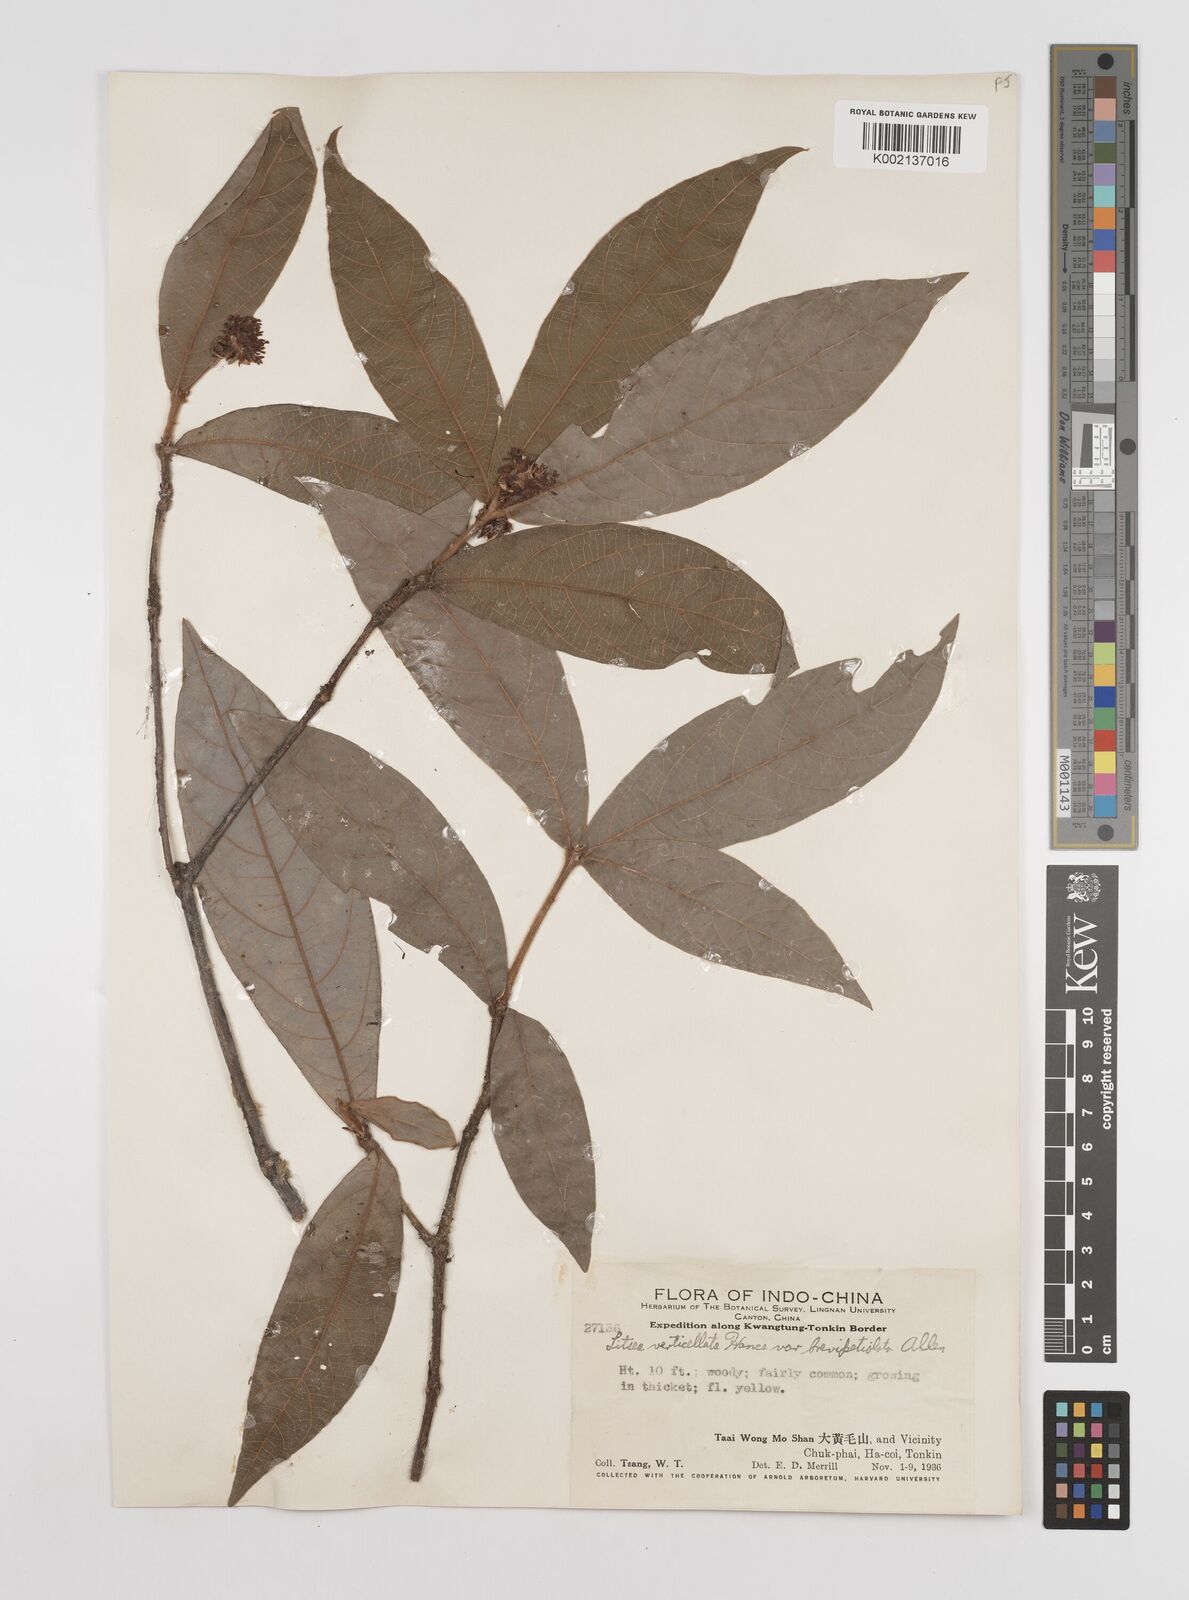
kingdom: Plantae
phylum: Tracheophyta
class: Magnoliopsida
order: Laurales
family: Lauraceae
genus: Litsea
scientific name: Litsea verticillata
